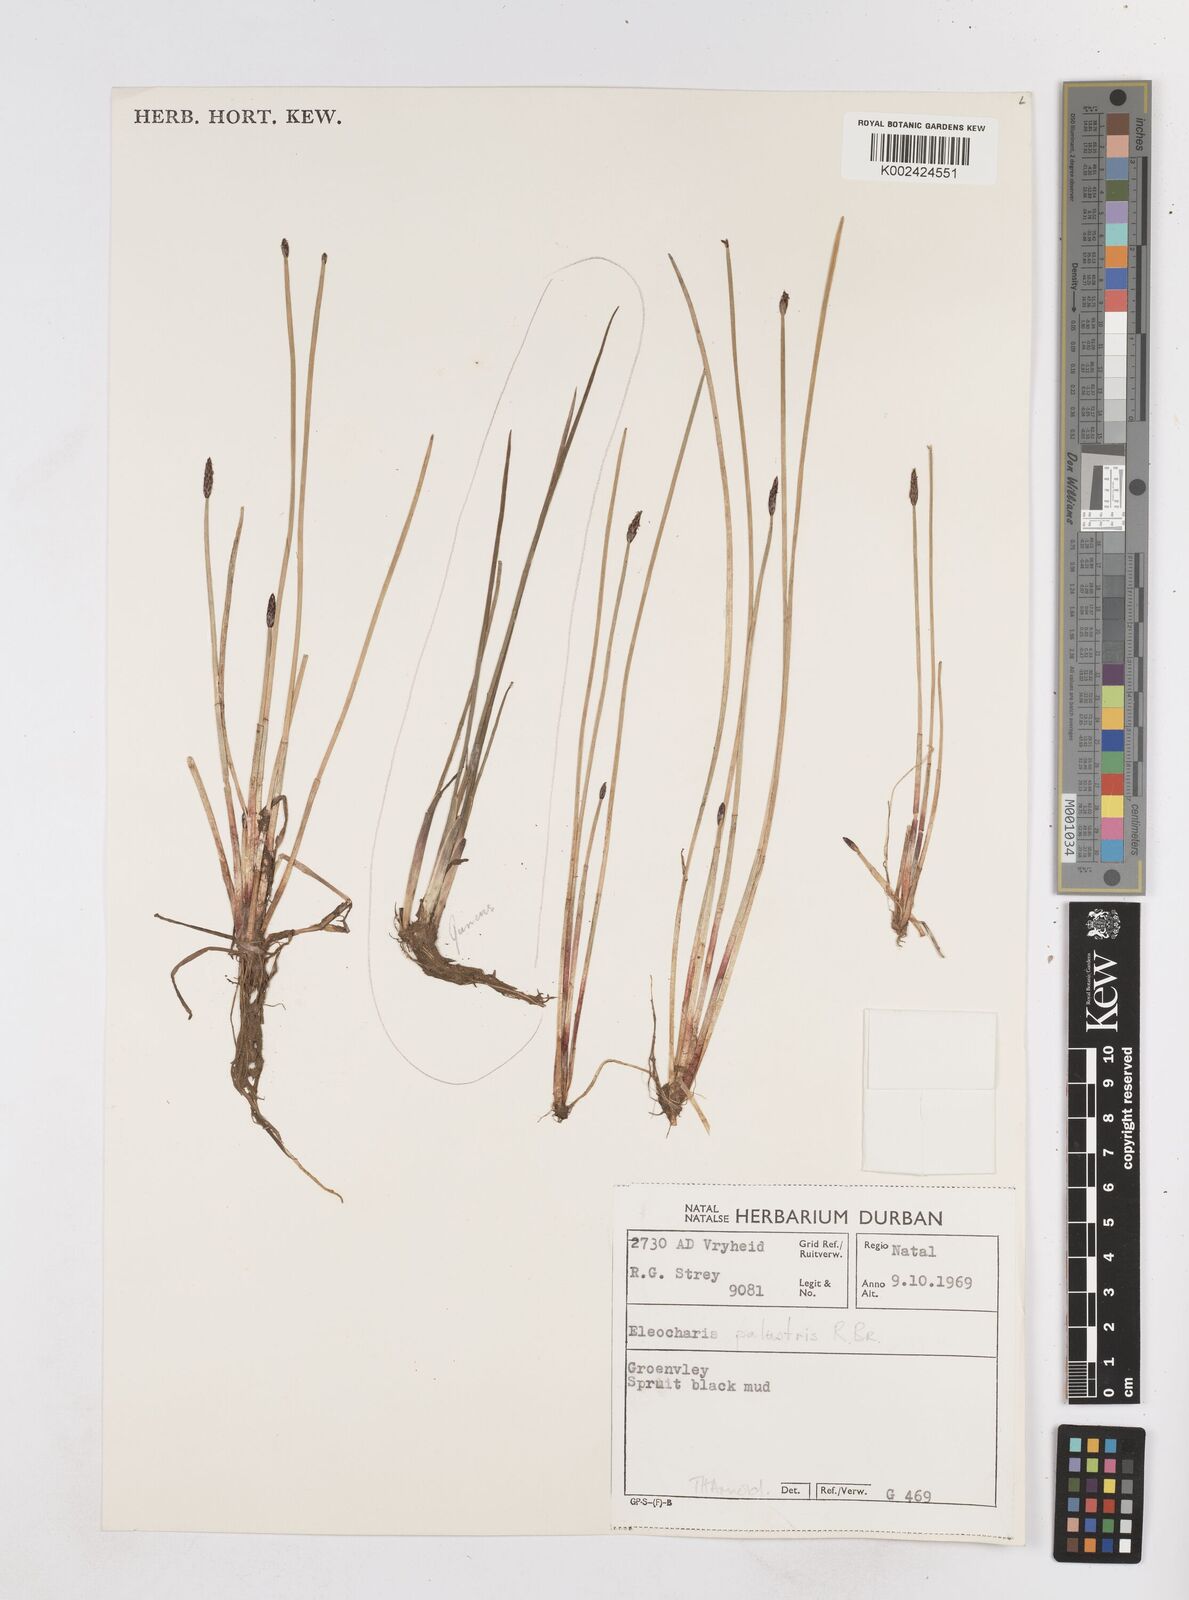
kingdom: Plantae
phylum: Tracheophyta
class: Liliopsida
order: Poales
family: Cyperaceae
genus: Eleocharis
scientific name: Eleocharis
